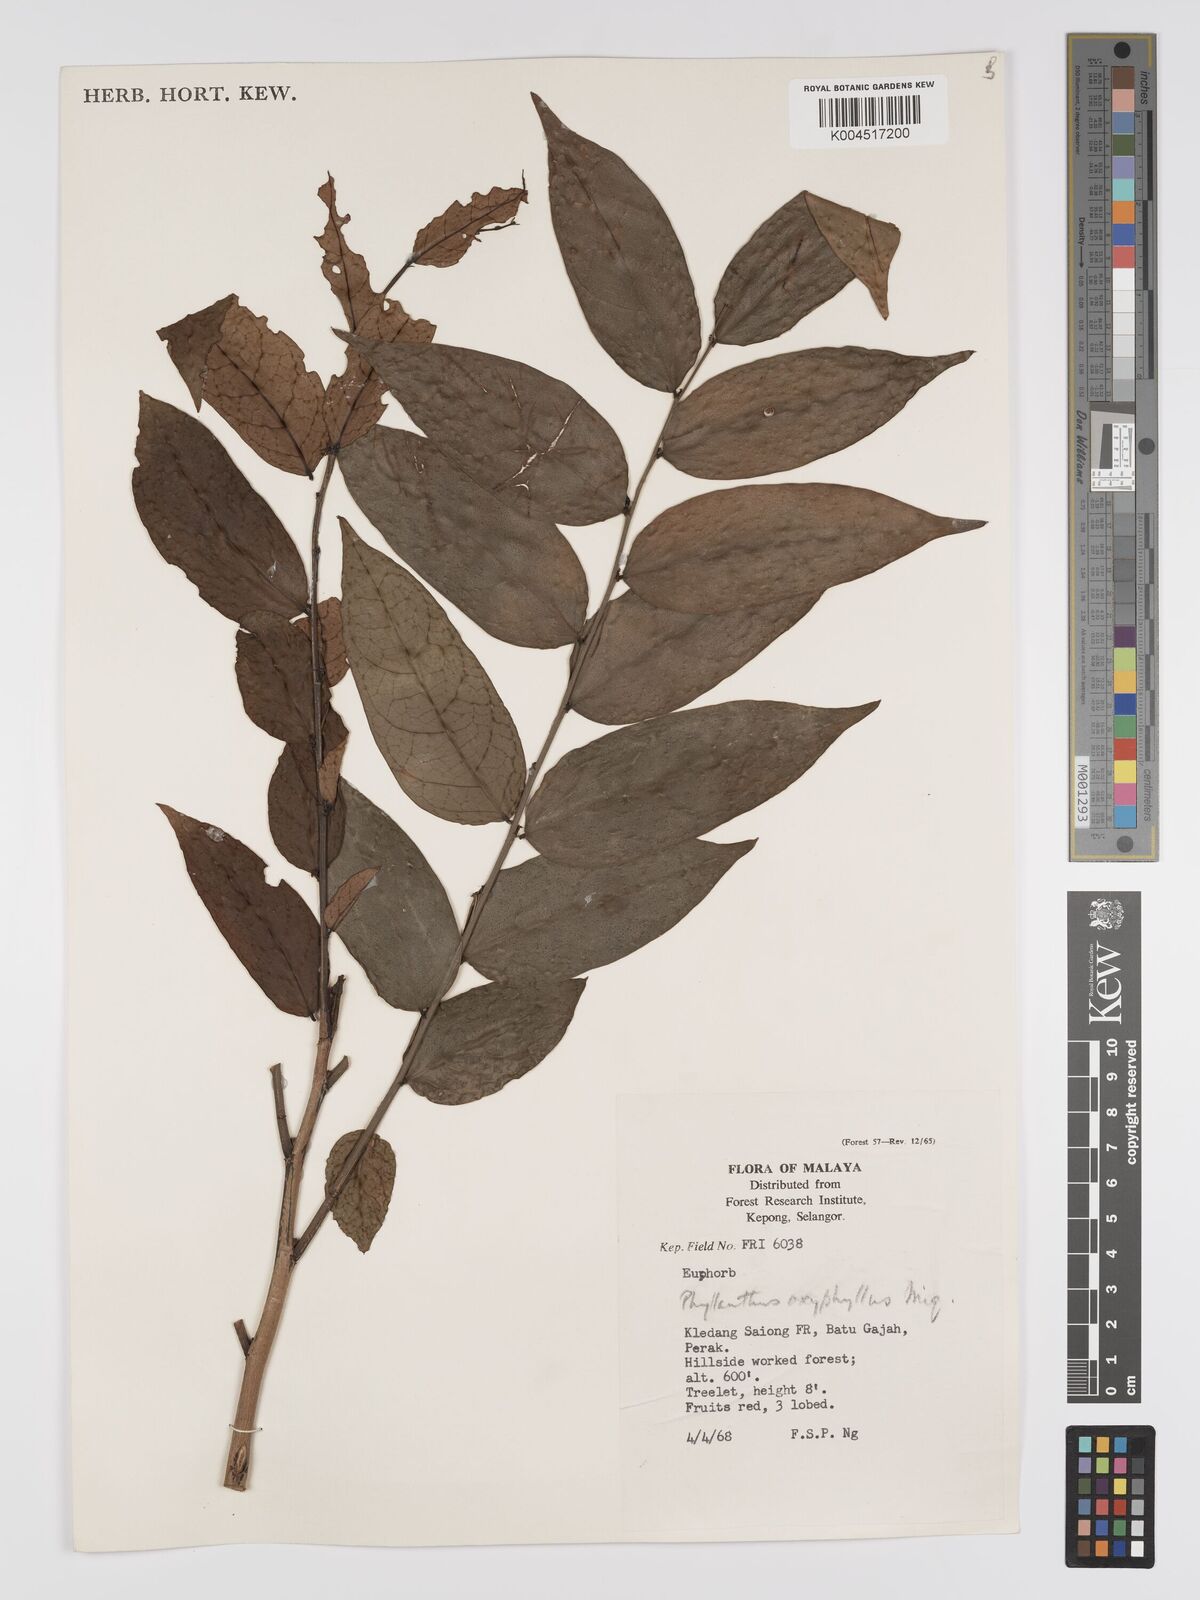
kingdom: Plantae
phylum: Tracheophyta
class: Magnoliopsida
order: Malpighiales
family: Phyllanthaceae
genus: Phyllanthus
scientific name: Phyllanthus
